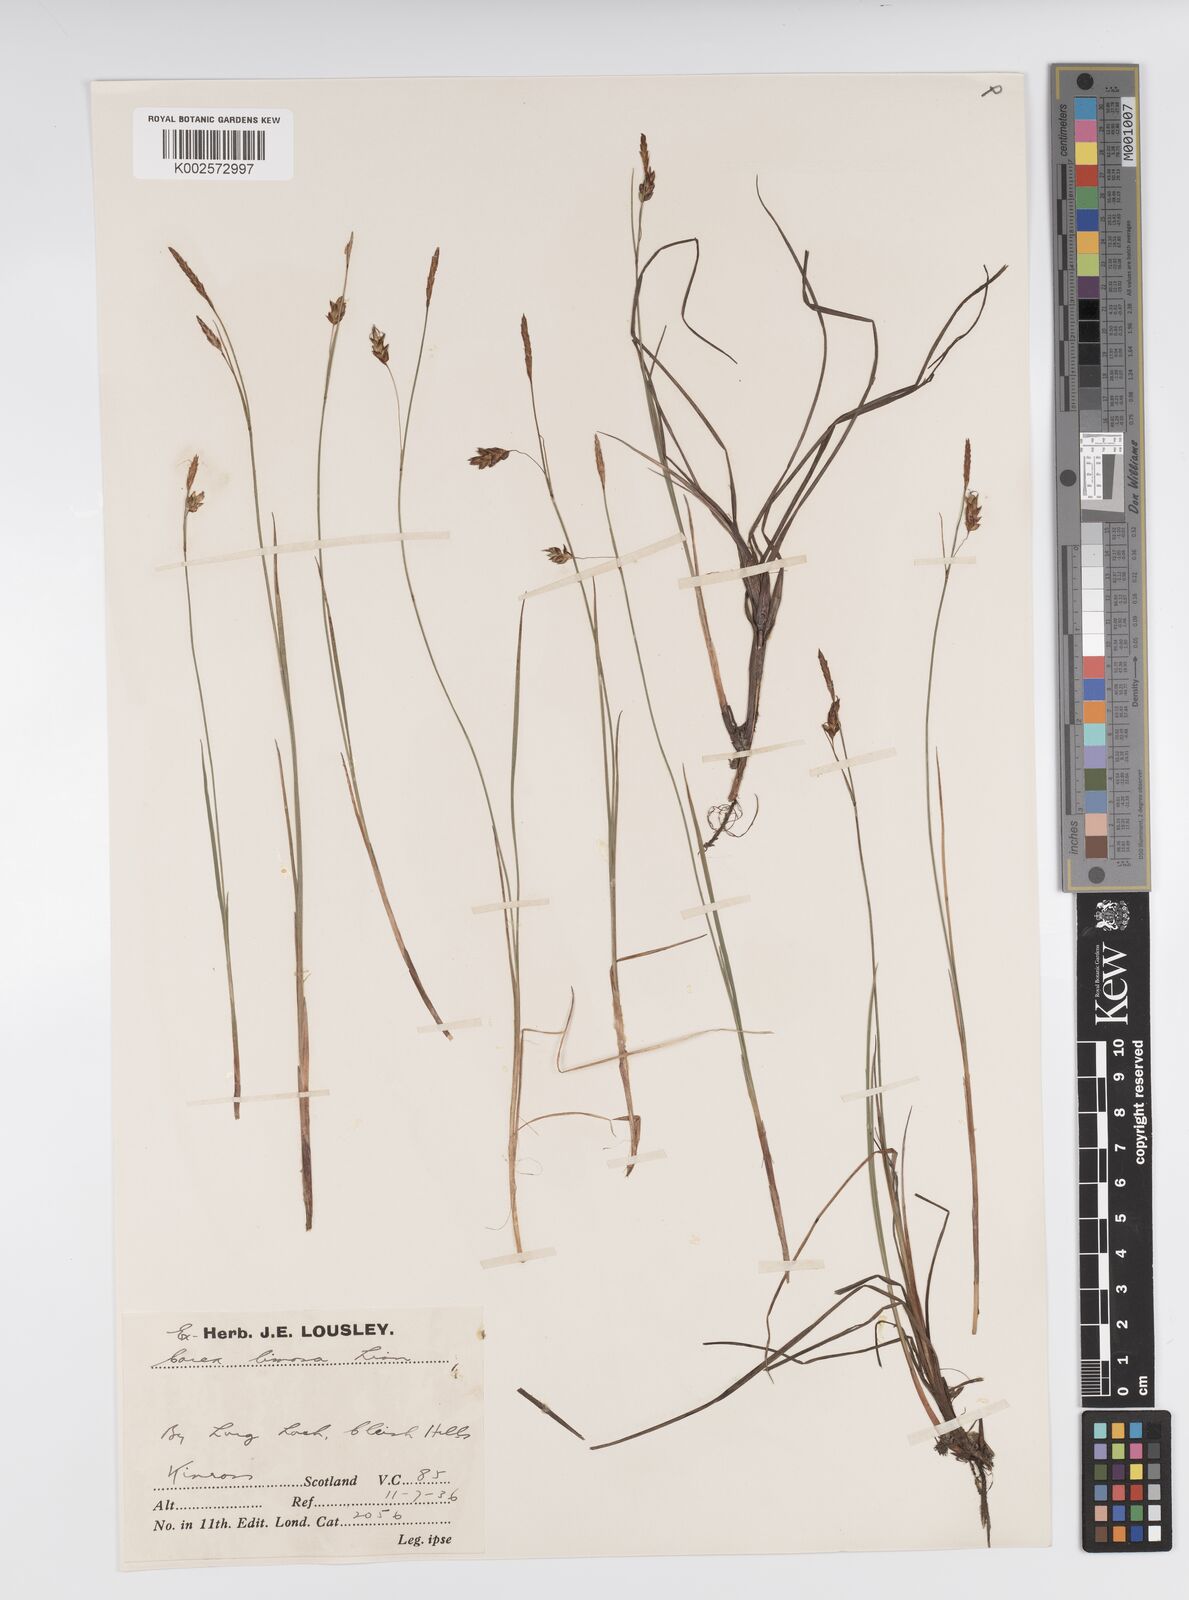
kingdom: Plantae
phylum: Tracheophyta
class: Liliopsida
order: Poales
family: Cyperaceae
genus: Carex
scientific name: Carex limosa
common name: Bog sedge
